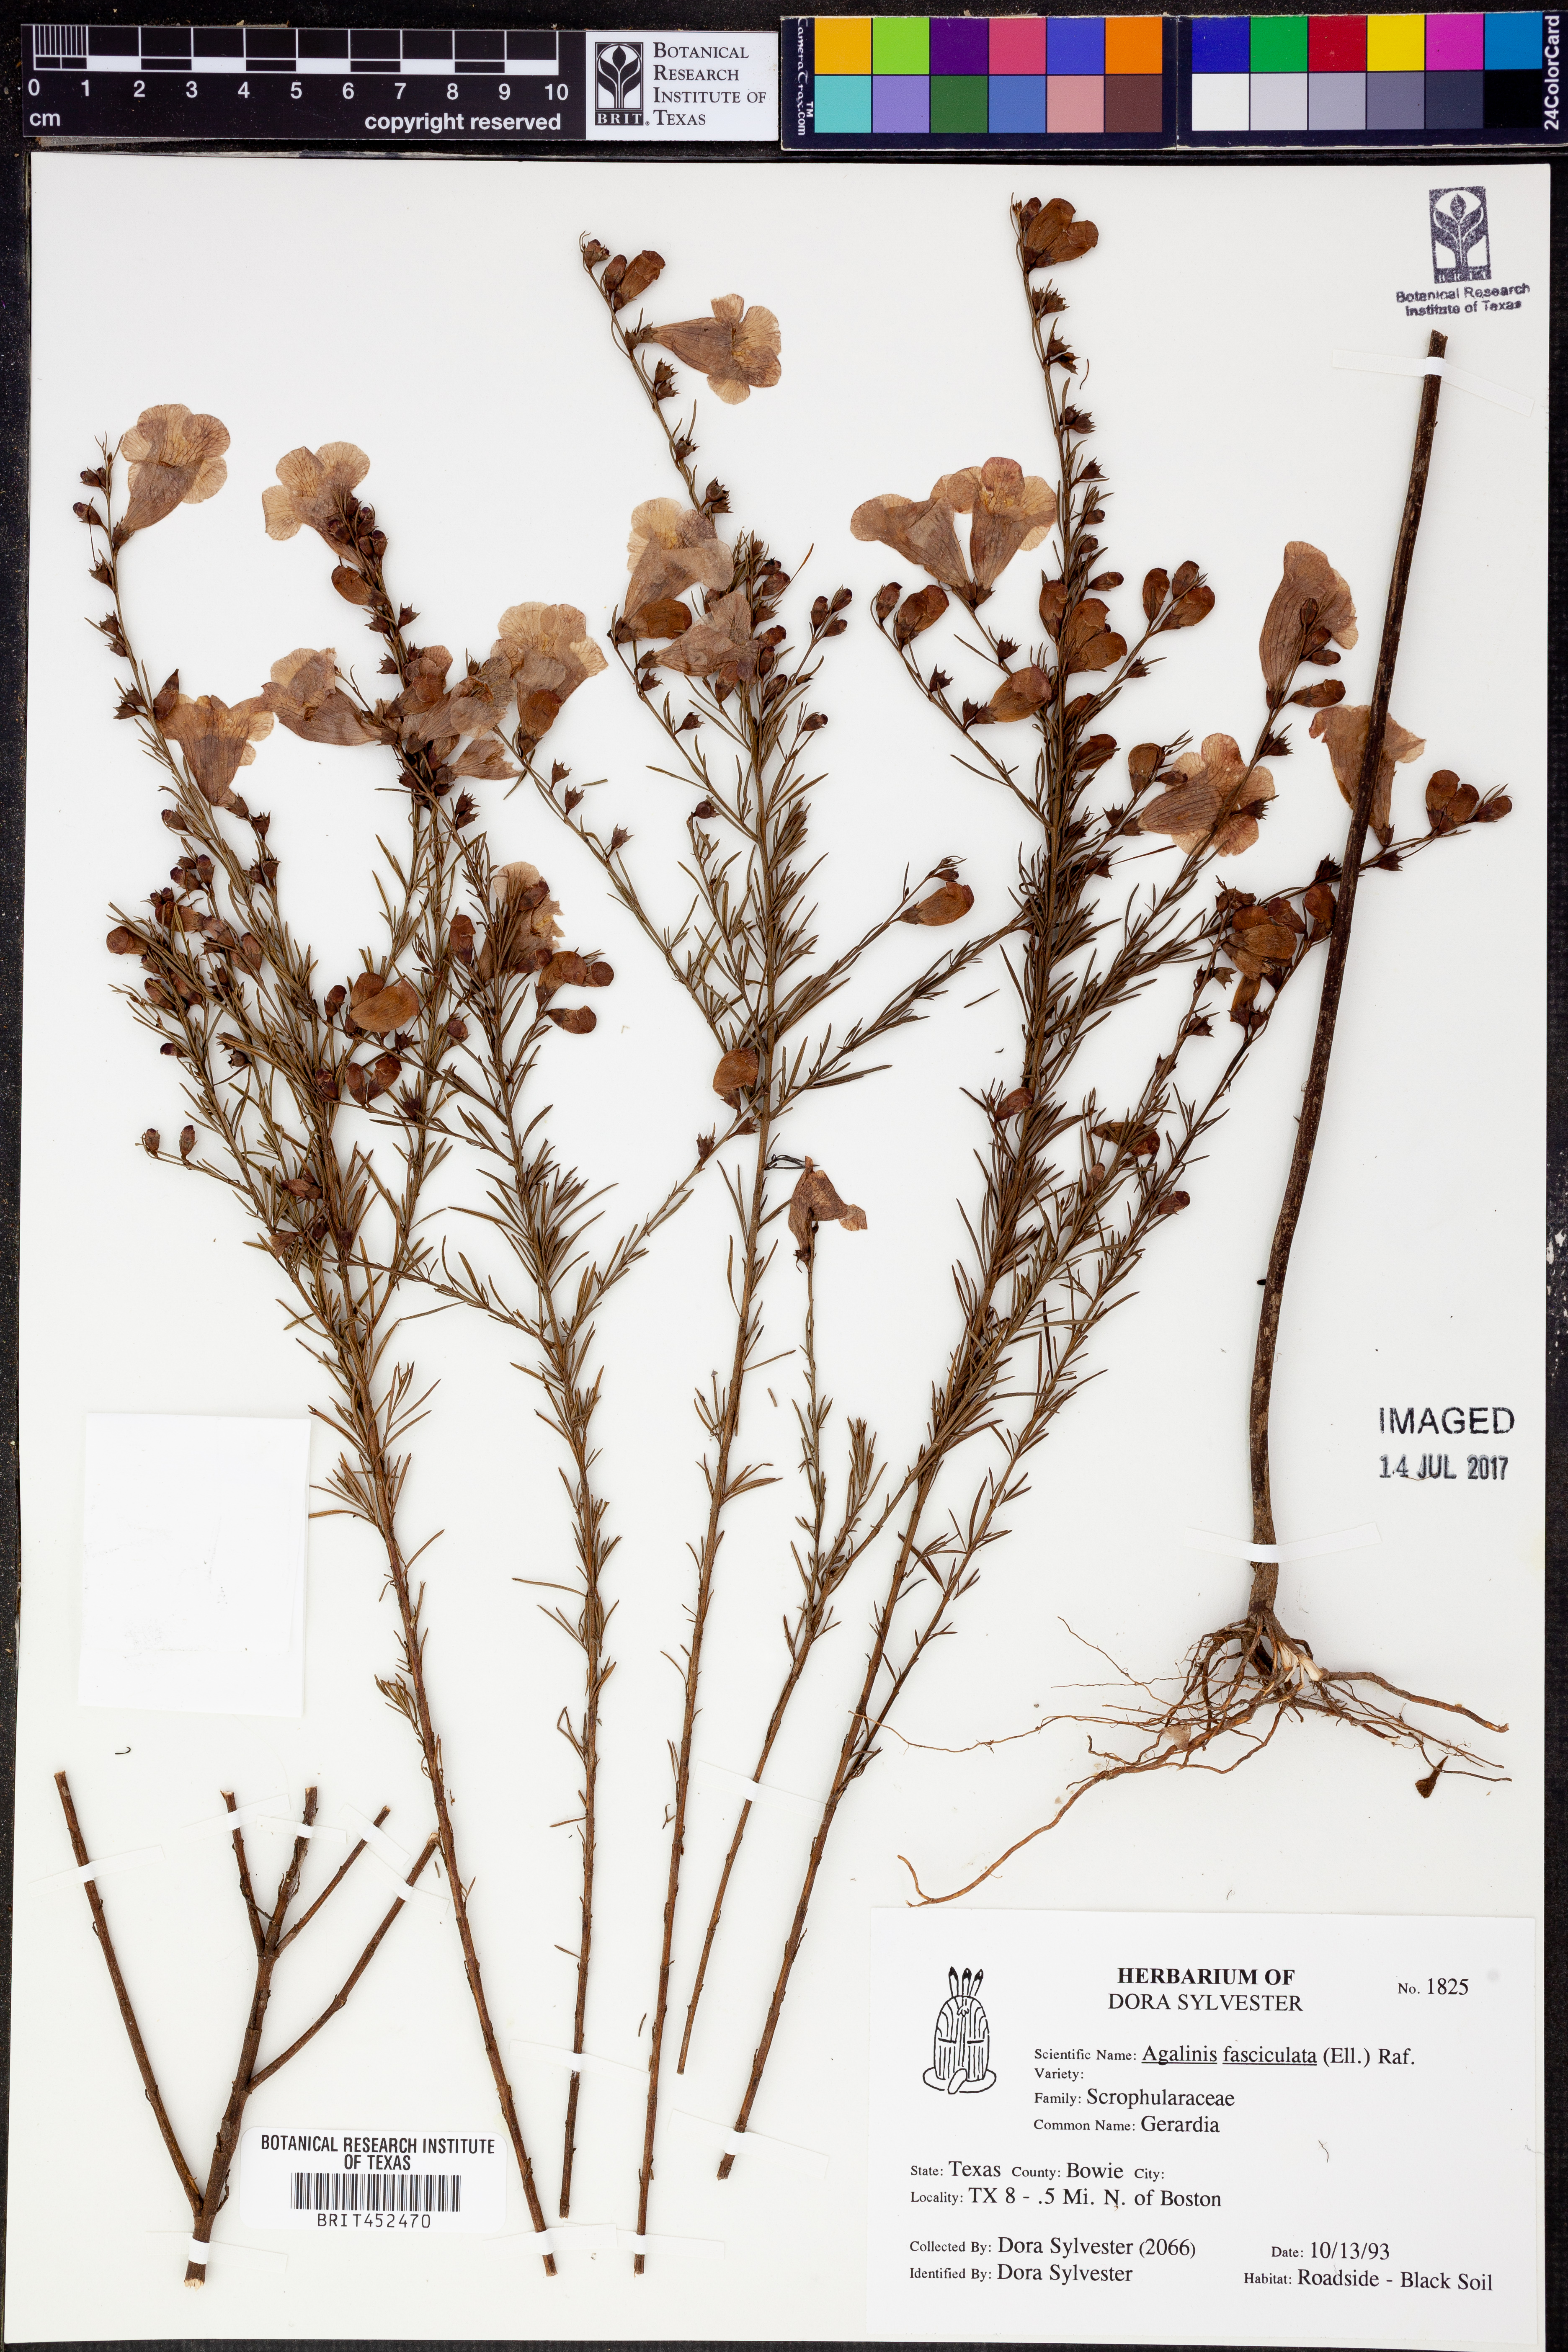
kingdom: Plantae
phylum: Tracheophyta
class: Magnoliopsida
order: Lamiales
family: Orobanchaceae
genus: Agalinis
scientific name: Agalinis fasciculata
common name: Beach false foxglove
